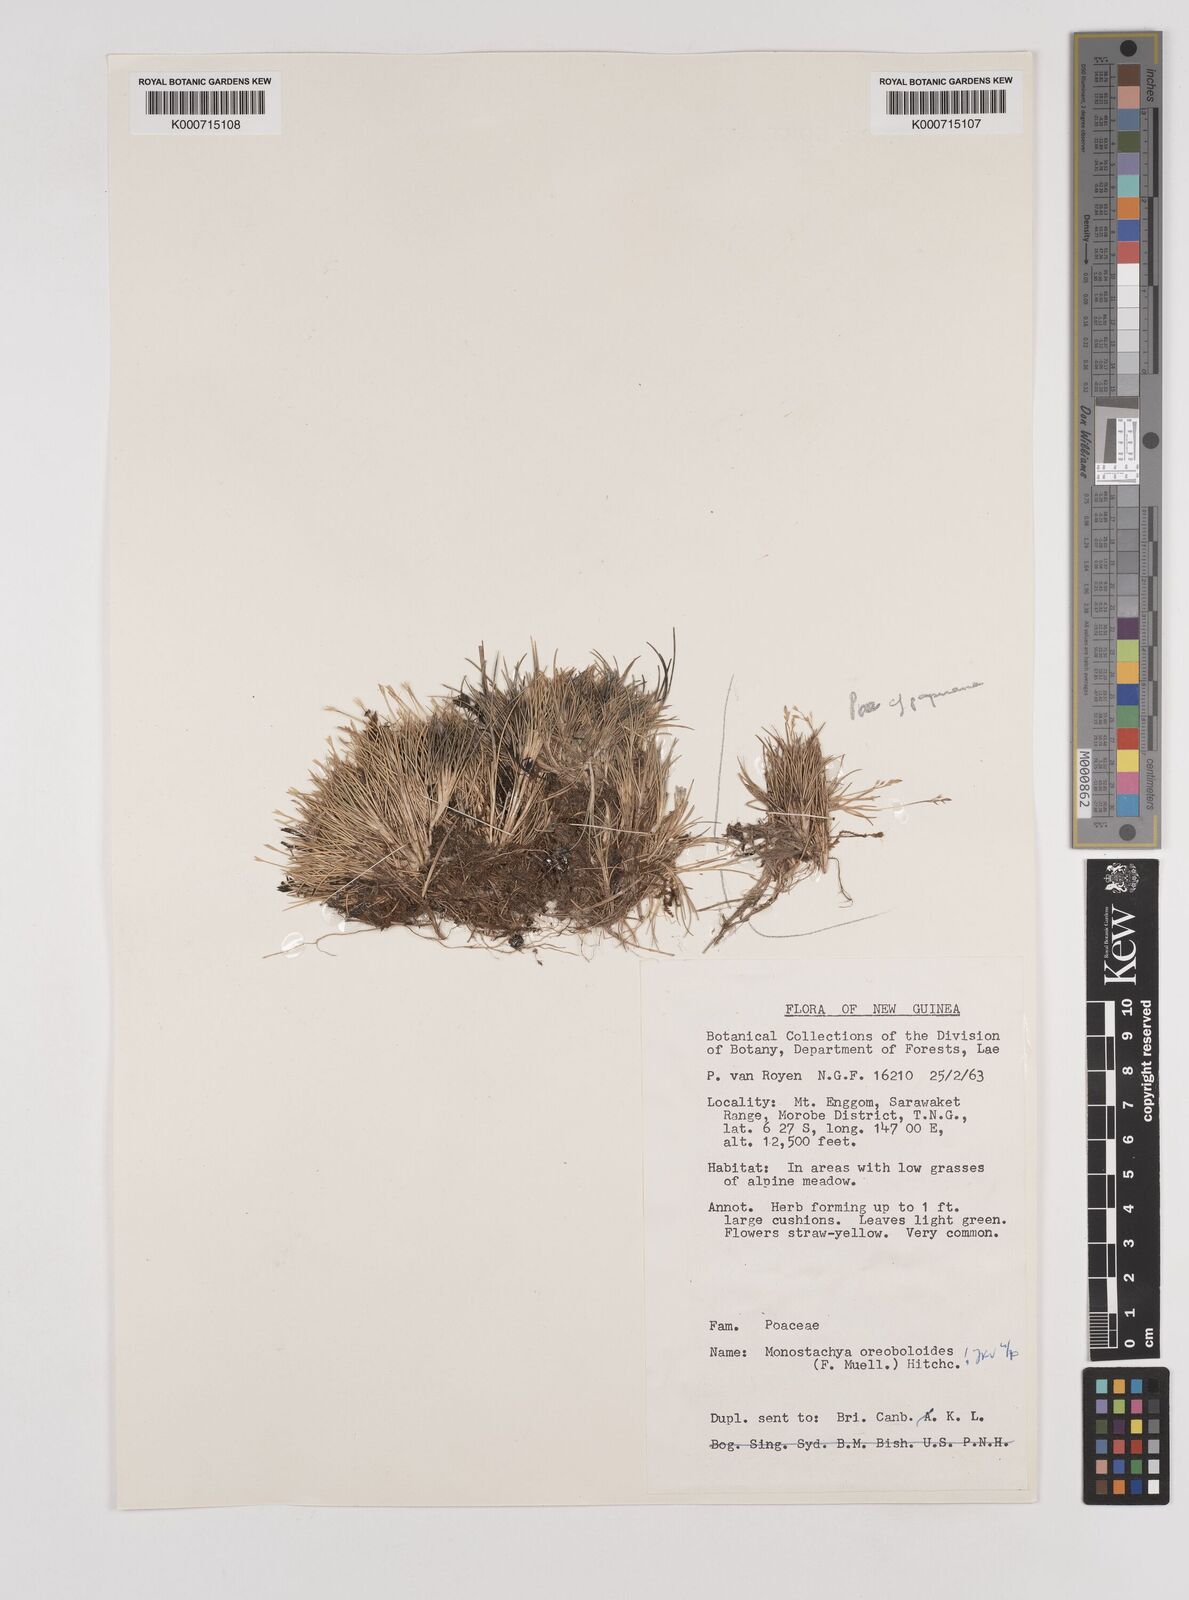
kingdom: Plantae
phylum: Tracheophyta
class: Liliopsida
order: Poales
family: Poaceae
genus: Rytidosperma
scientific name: Rytidosperma oreoboloides
